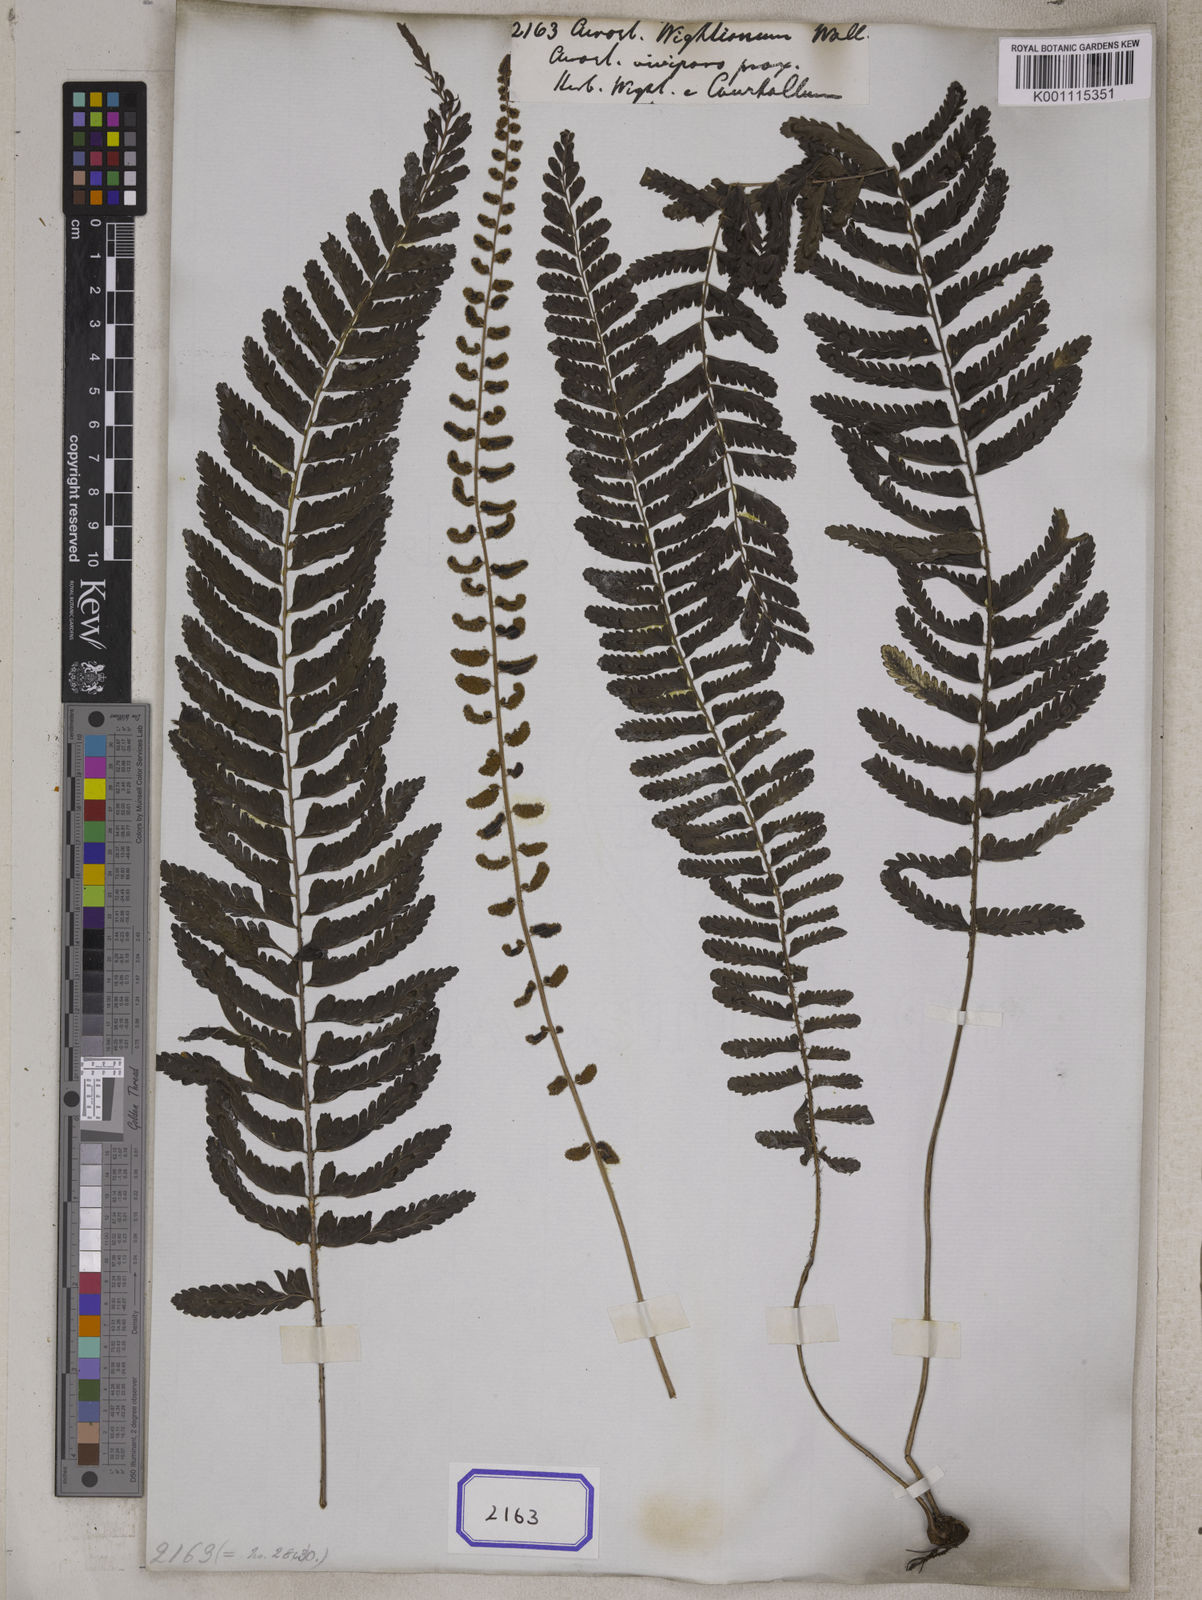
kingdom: Plantae
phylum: Tracheophyta
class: Polypodiopsida
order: Polypodiales
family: Dryopteridaceae
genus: Bolbitis
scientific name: Bolbitis appendiculata
